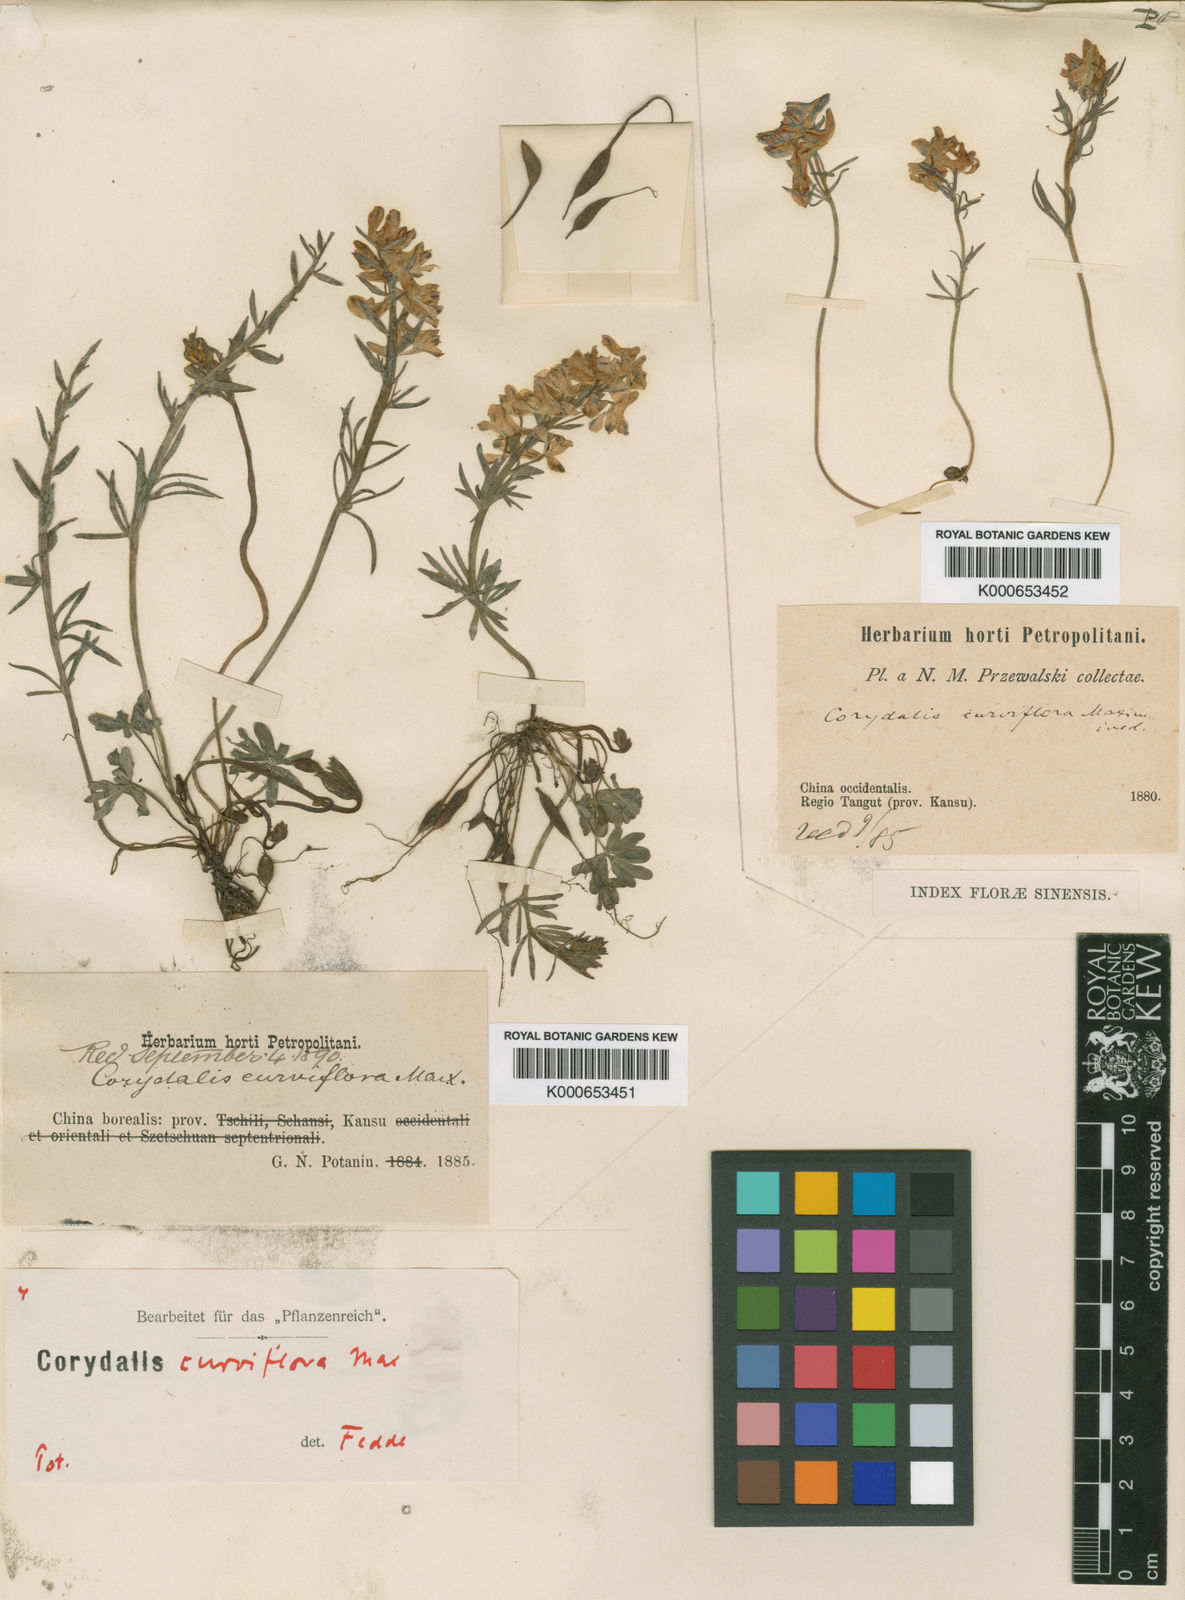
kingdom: Plantae
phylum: Tracheophyta
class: Magnoliopsida
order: Ranunculales
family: Papaveraceae
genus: Corydalis
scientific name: Corydalis curviflora
